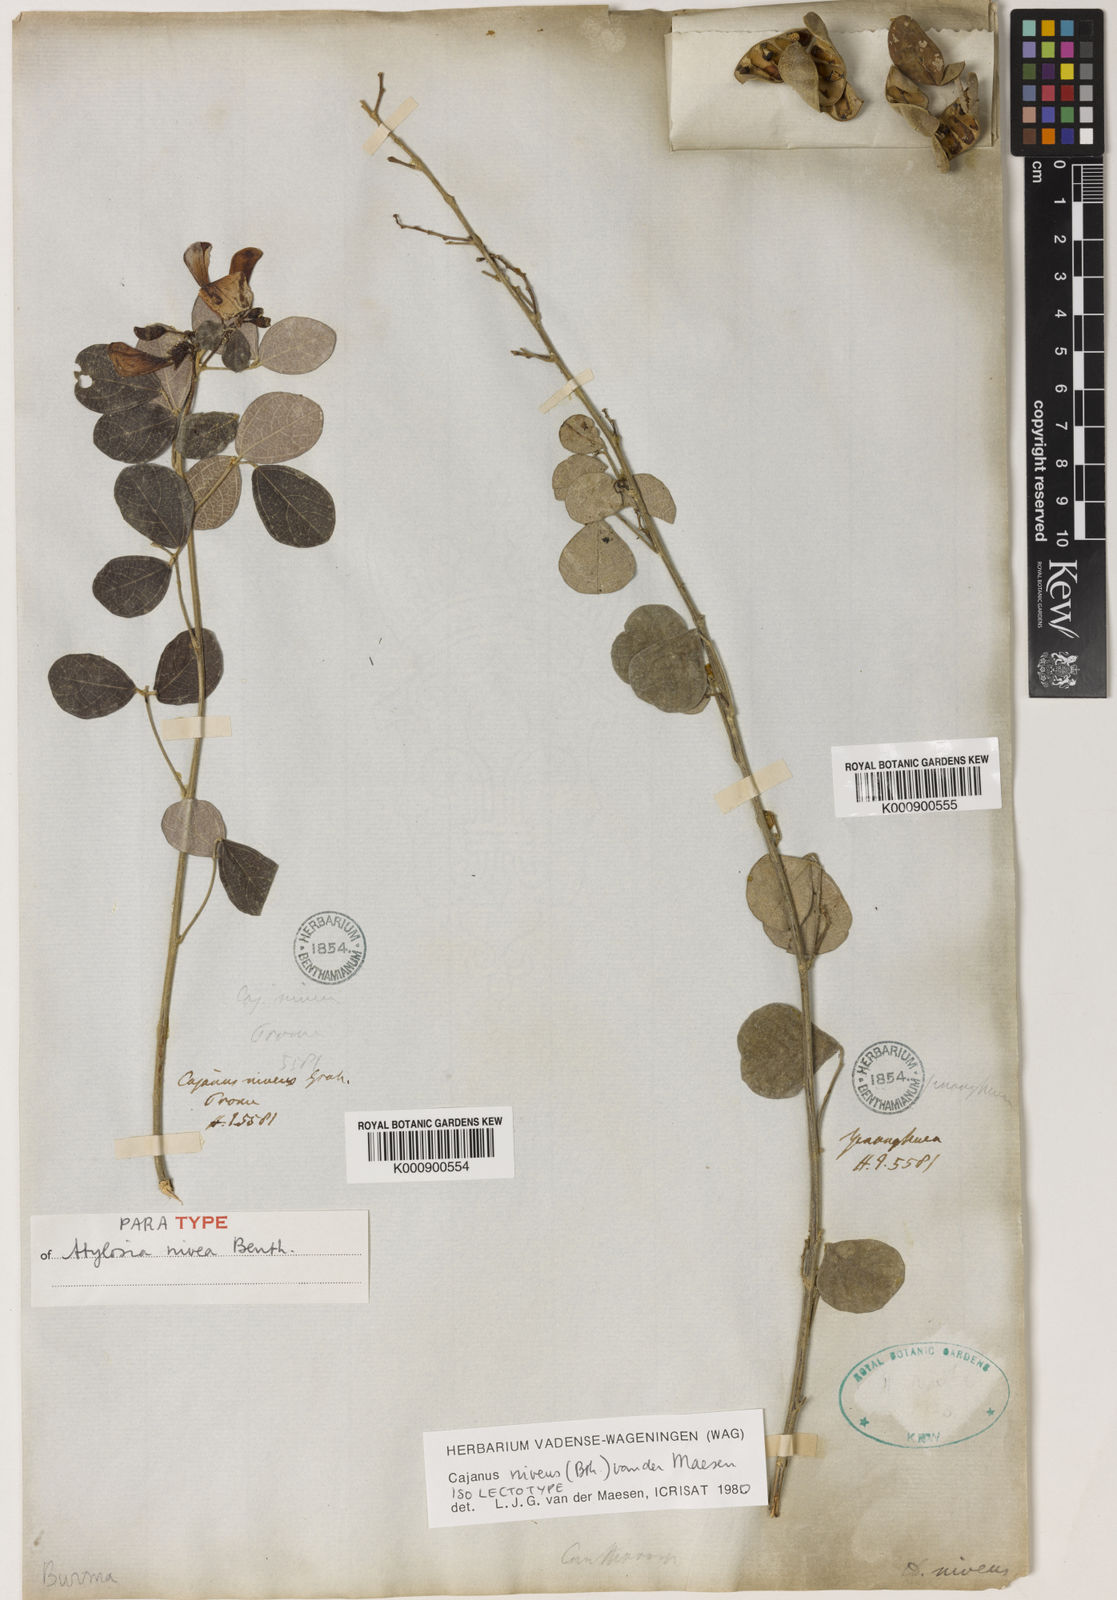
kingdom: Plantae
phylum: Tracheophyta
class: Magnoliopsida
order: Fabales
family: Fabaceae
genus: Cajanus
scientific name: Cajanus
